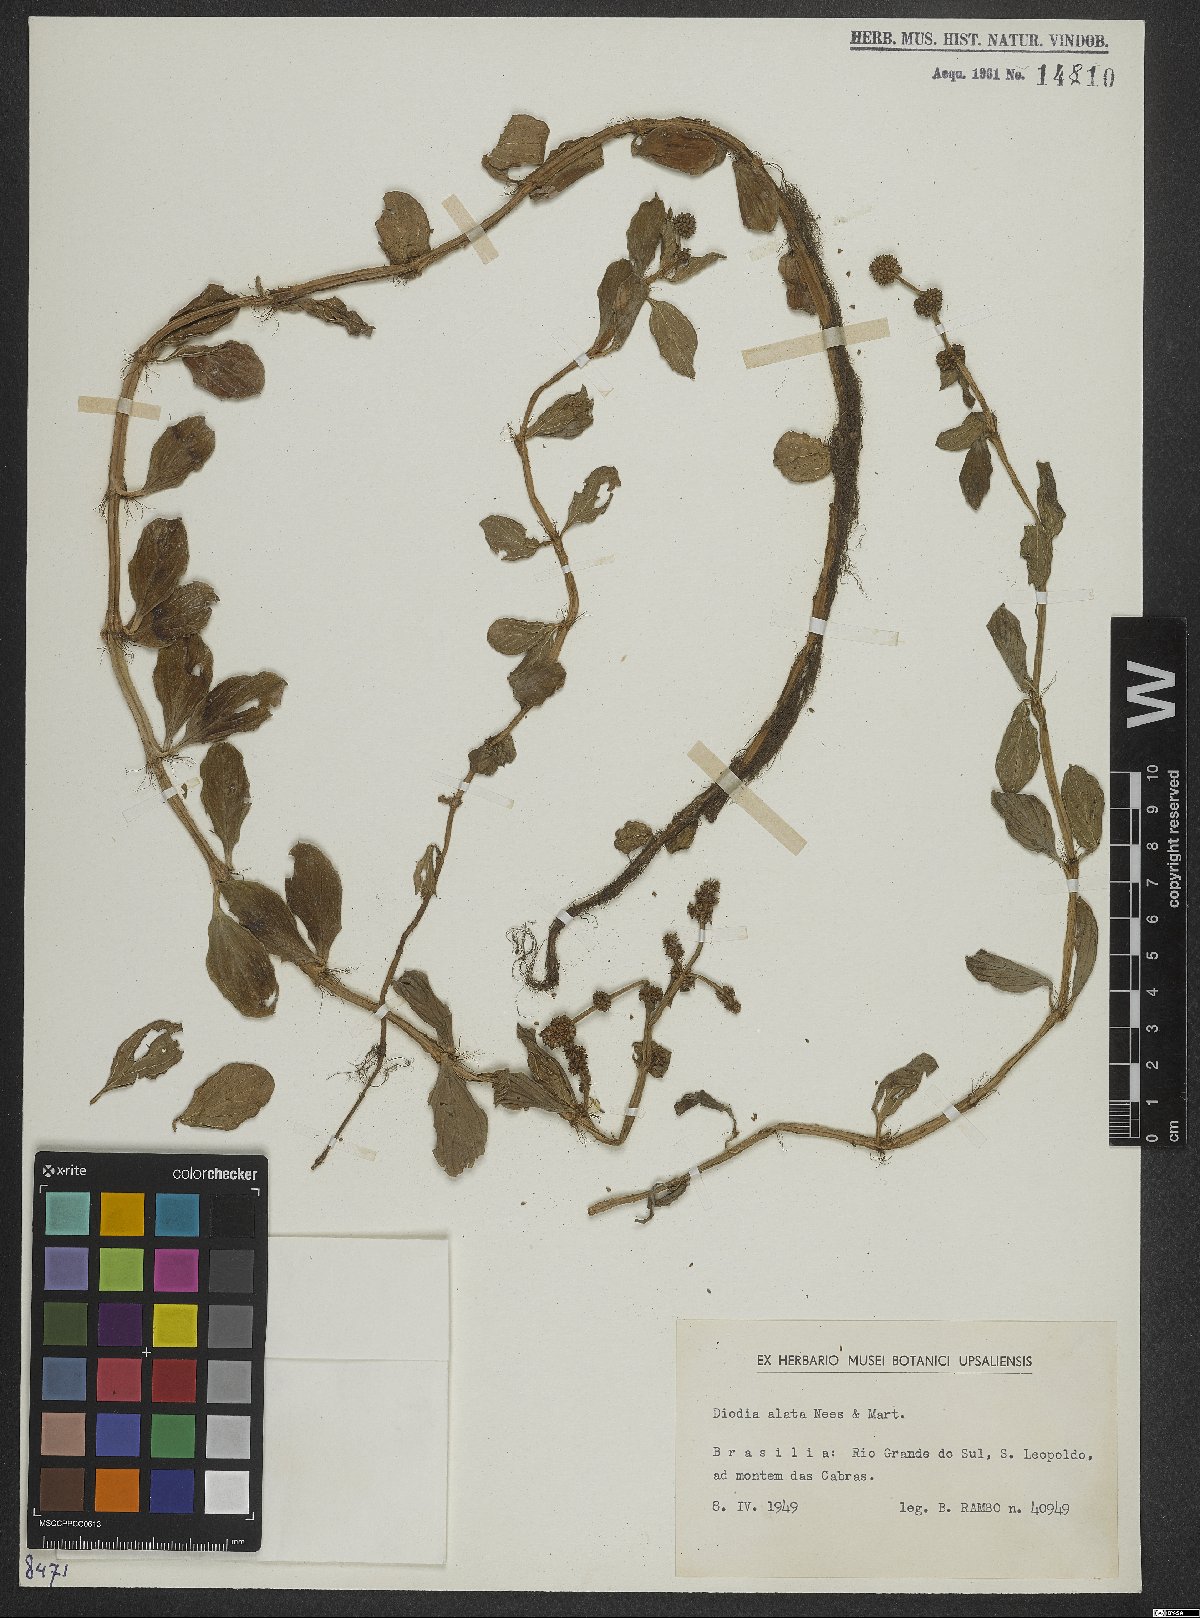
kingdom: Plantae
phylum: Tracheophyta
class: Magnoliopsida
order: Gentianales
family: Rubiaceae
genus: Galianthe
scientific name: Galianthe palustris
